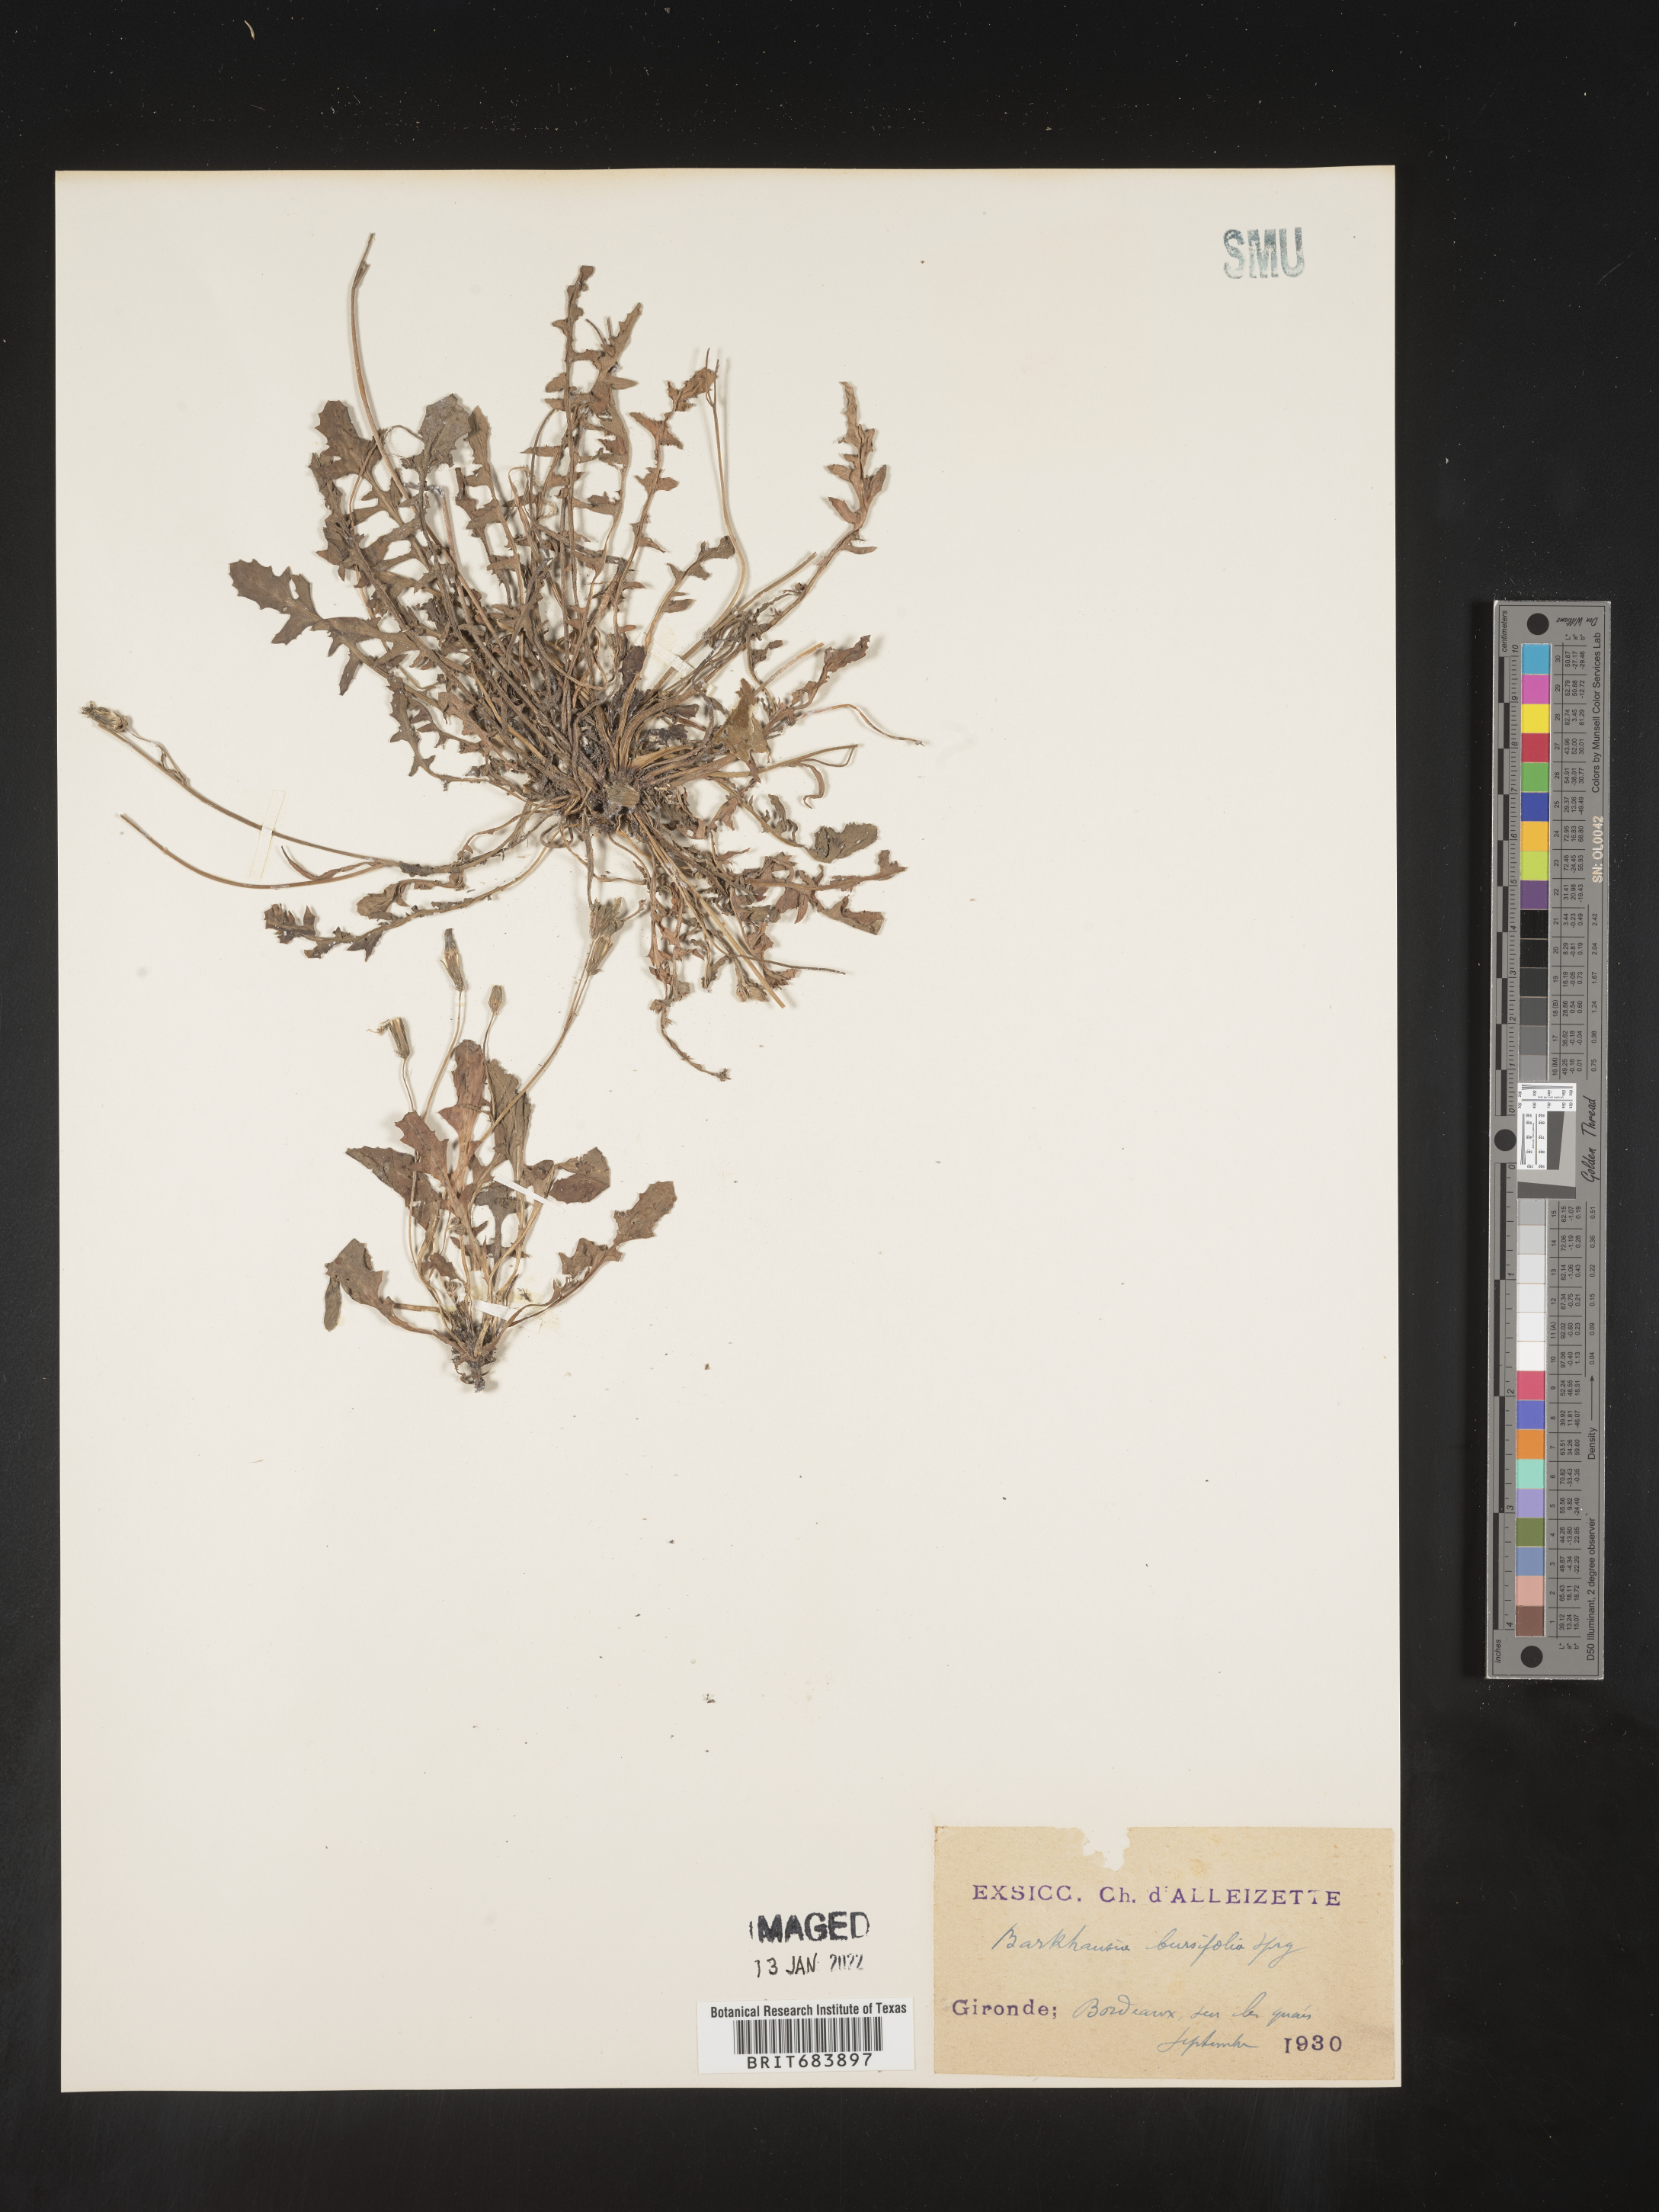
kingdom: Plantae
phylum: Tracheophyta
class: Magnoliopsida
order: Asterales
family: Asteraceae
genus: Crepis
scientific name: Crepis
